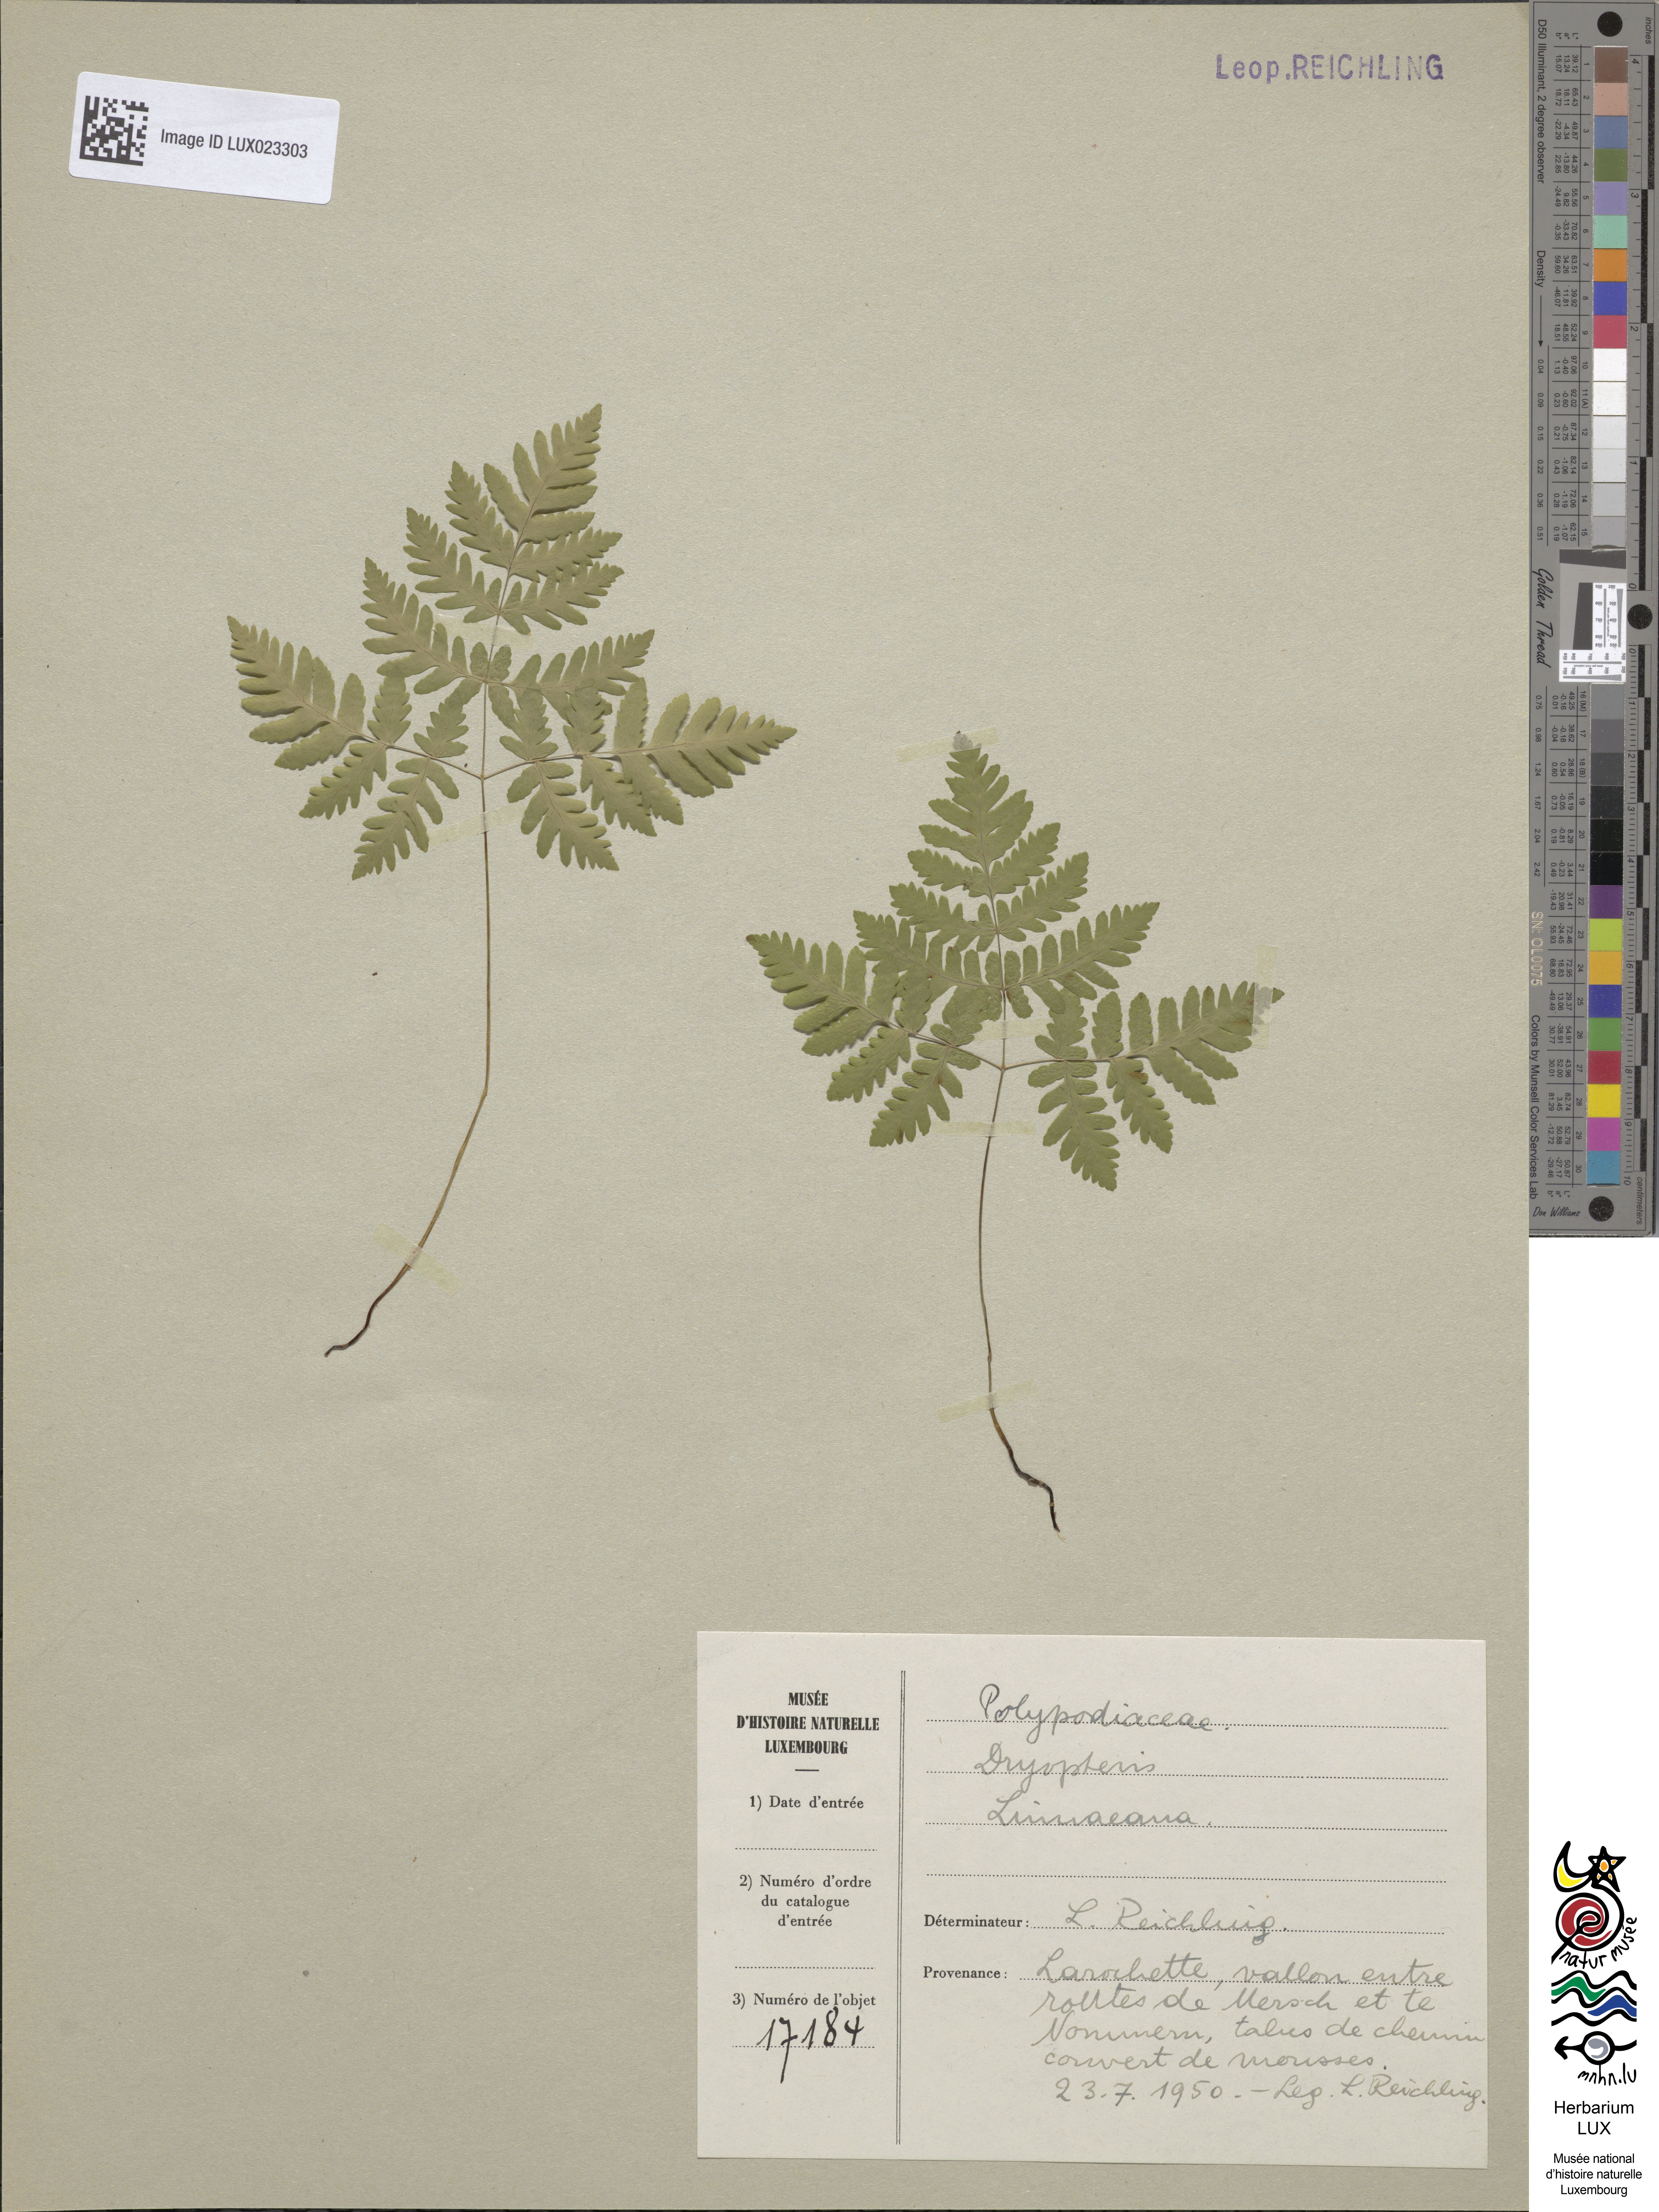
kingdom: Plantae
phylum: Tracheophyta
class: Polypodiopsida
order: Polypodiales
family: Cystopteridaceae
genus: Gymnocarpium
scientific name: Gymnocarpium dryopteris
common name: Oak fern
